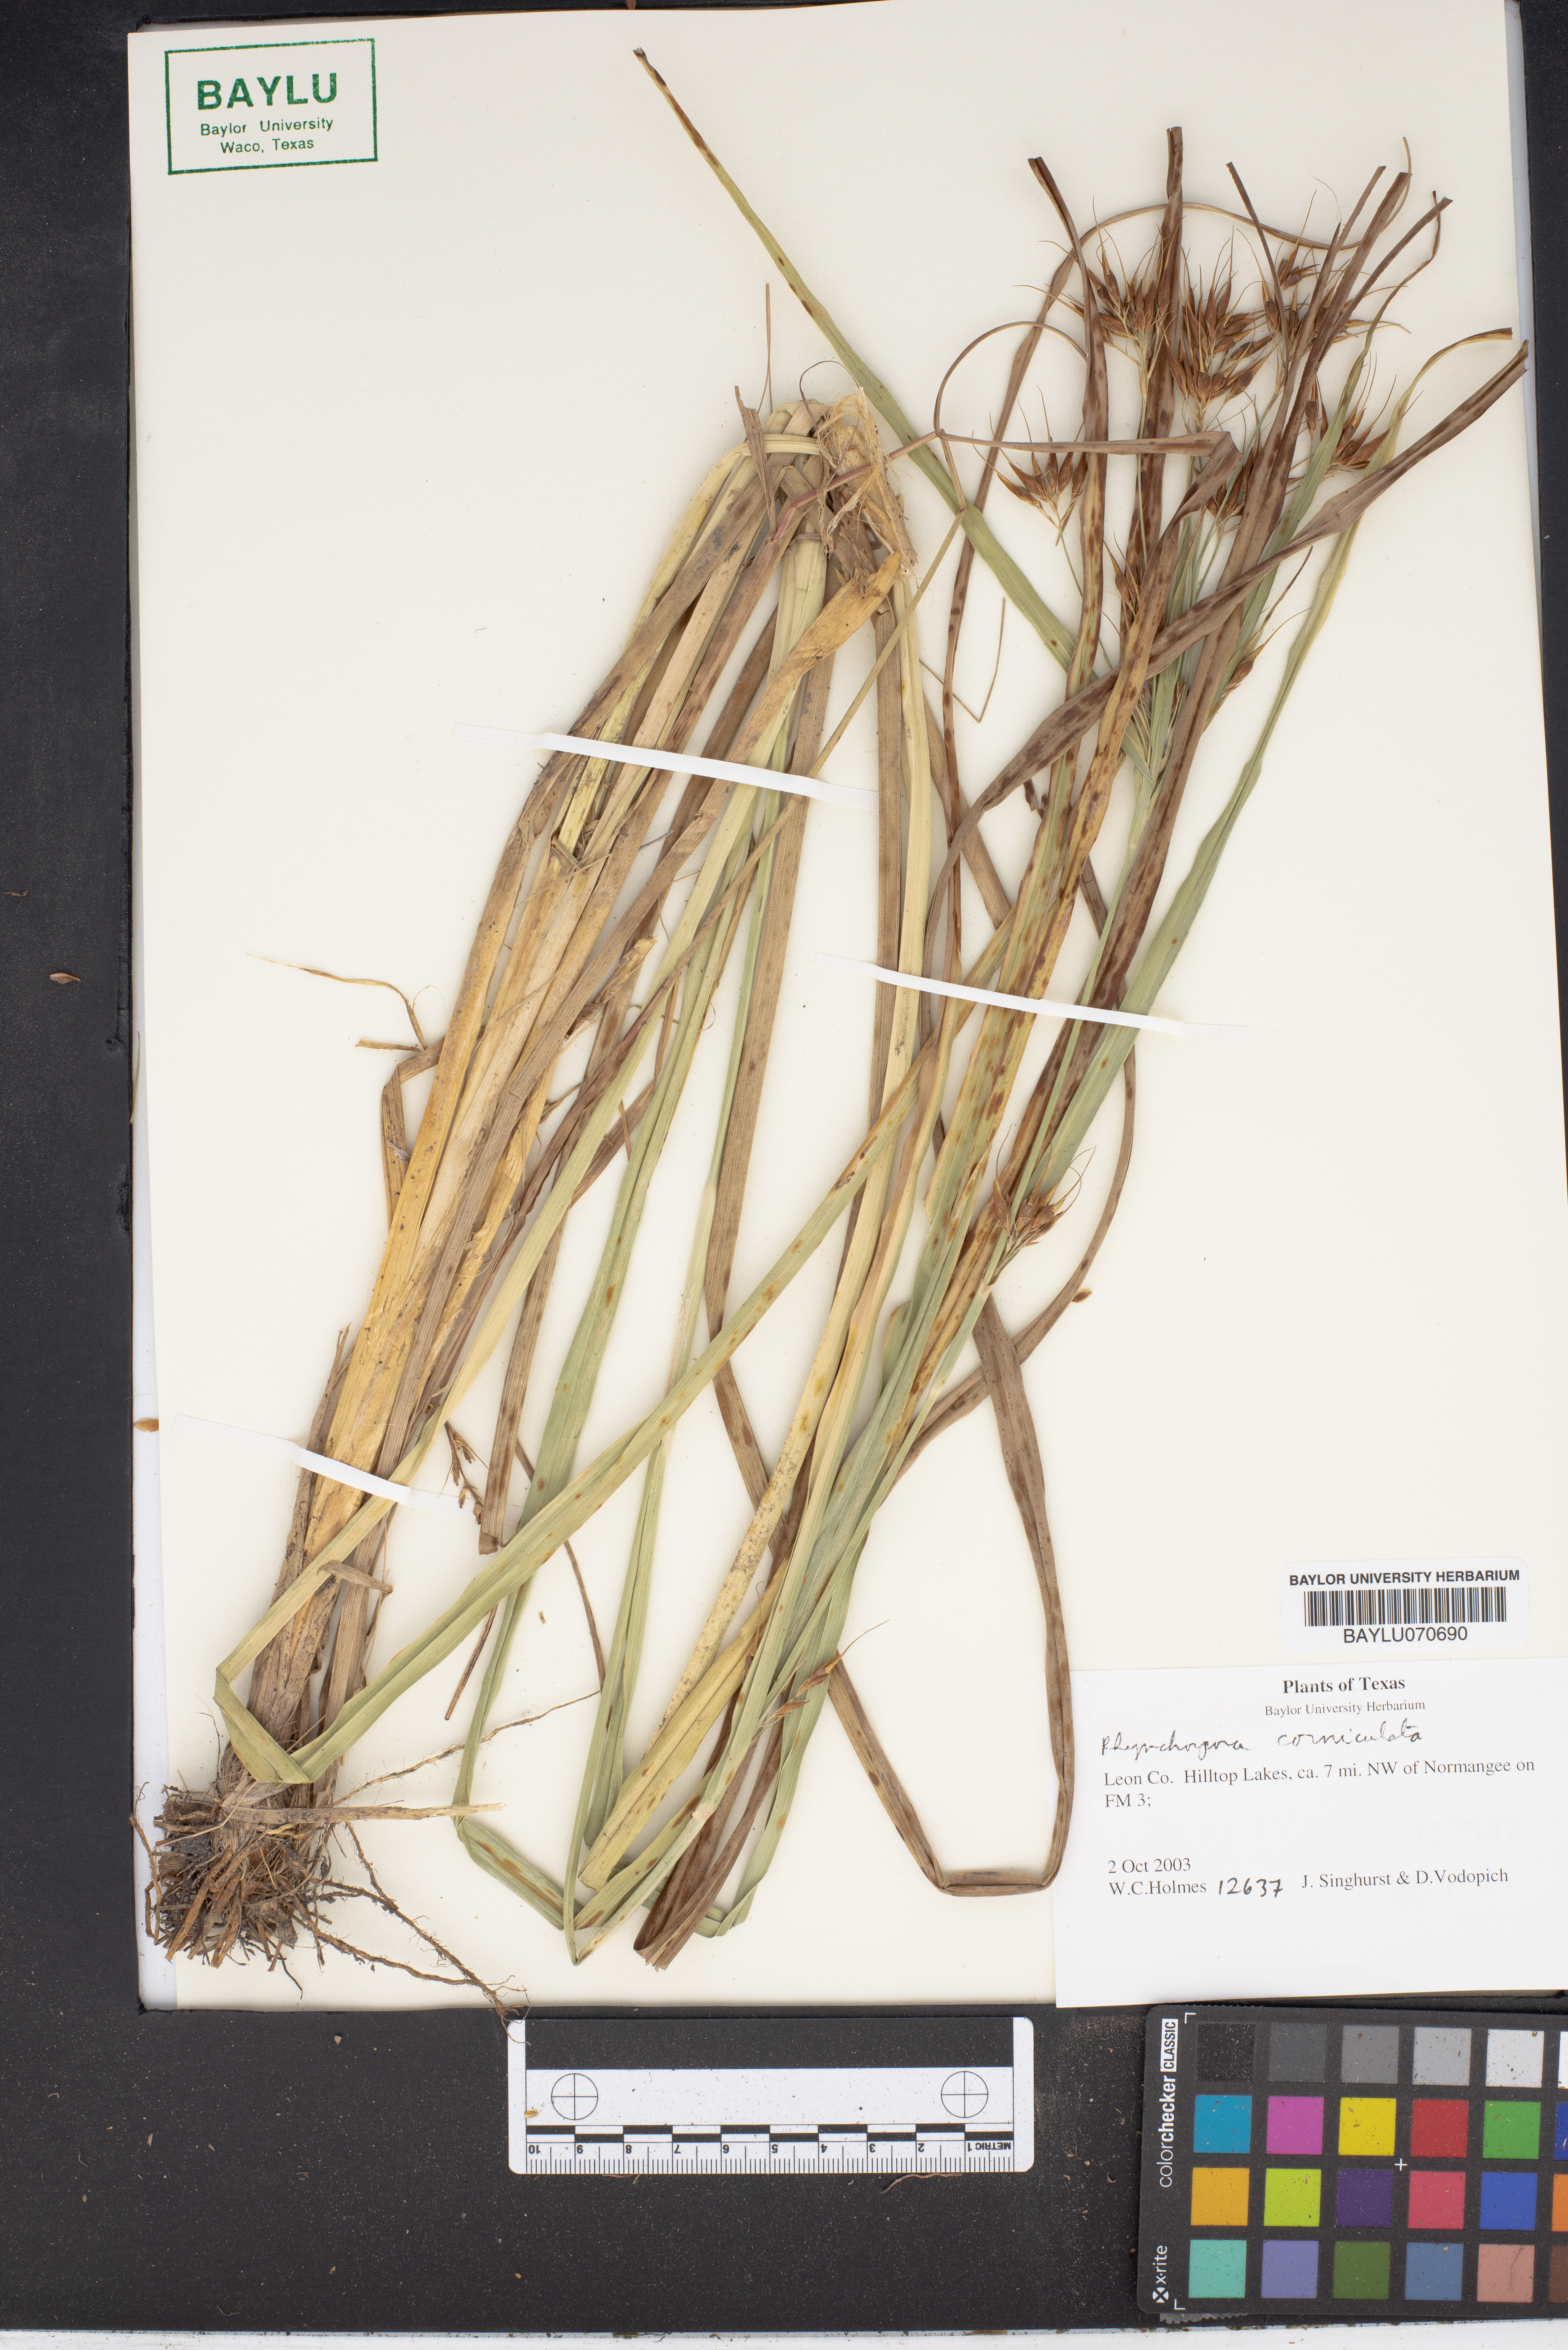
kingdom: Plantae
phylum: Tracheophyta
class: Liliopsida
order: Poales
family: Cyperaceae
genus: Rhynchospora
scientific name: Rhynchospora corniculata
